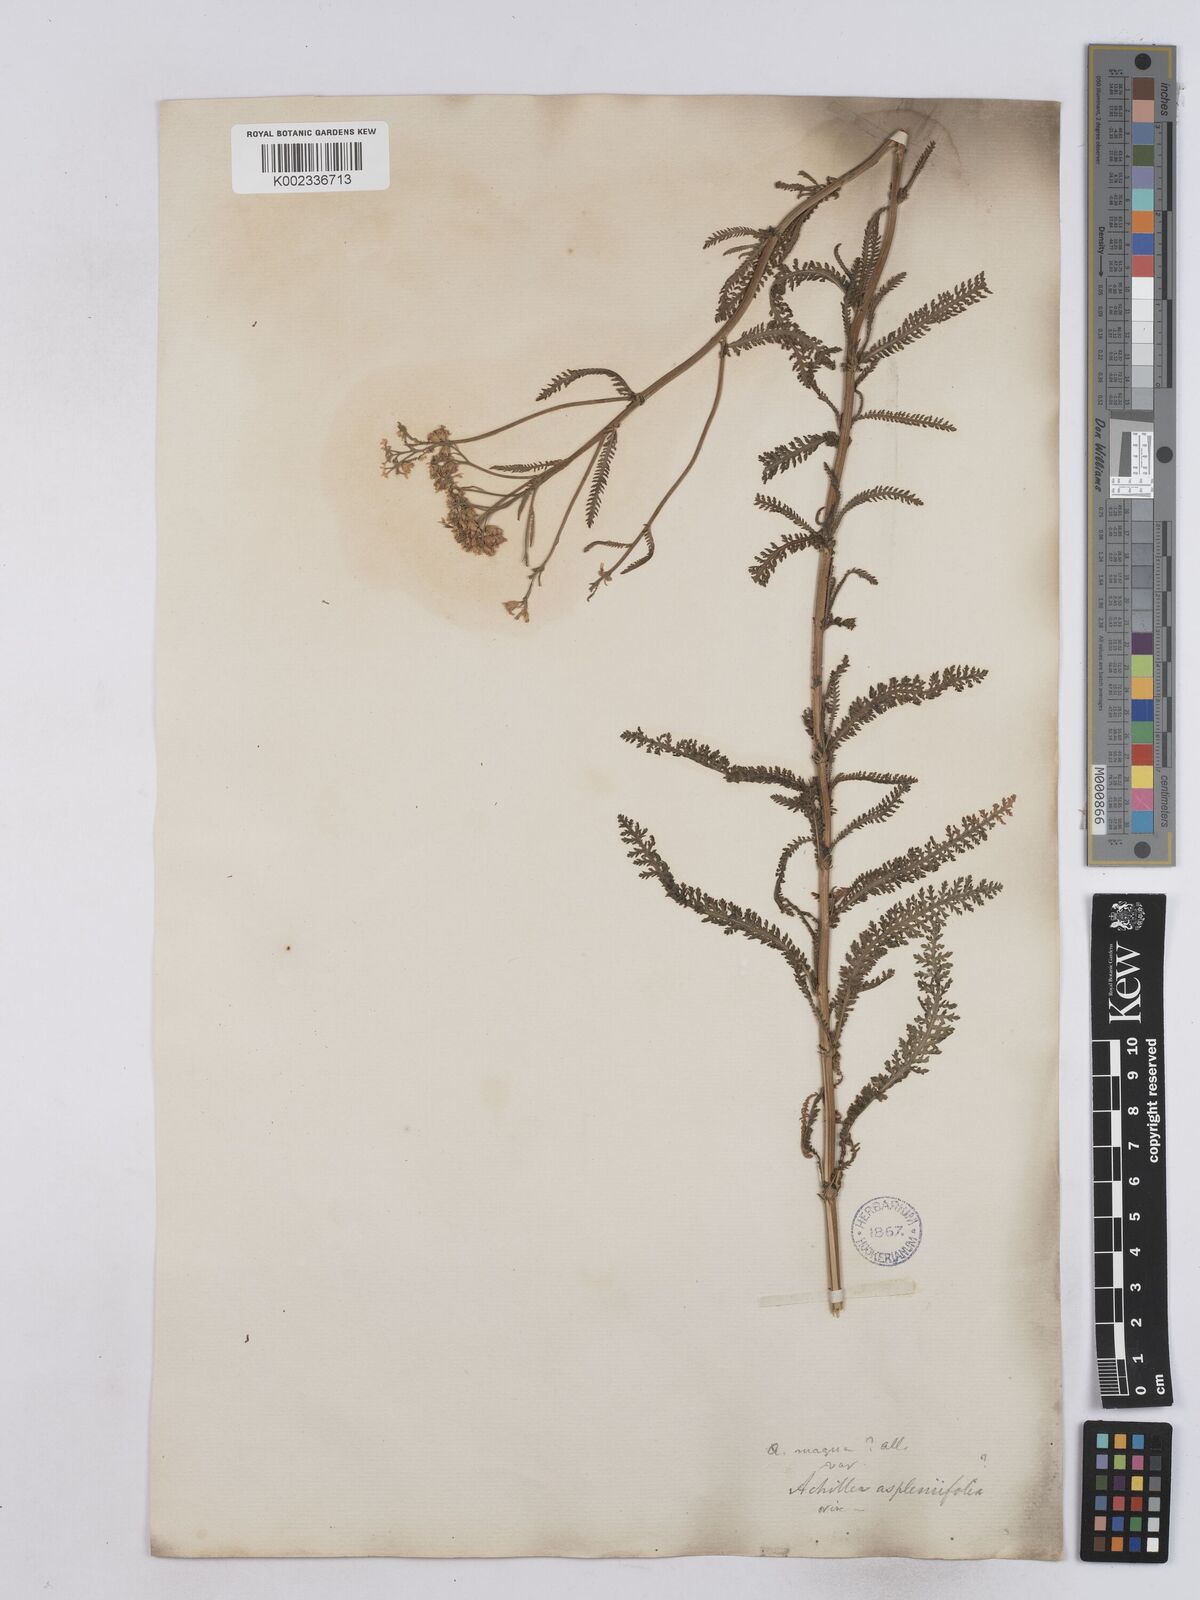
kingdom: Plantae
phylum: Tracheophyta
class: Magnoliopsida
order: Asterales
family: Asteraceae
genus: Achillea
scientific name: Achillea aspleniifolia
